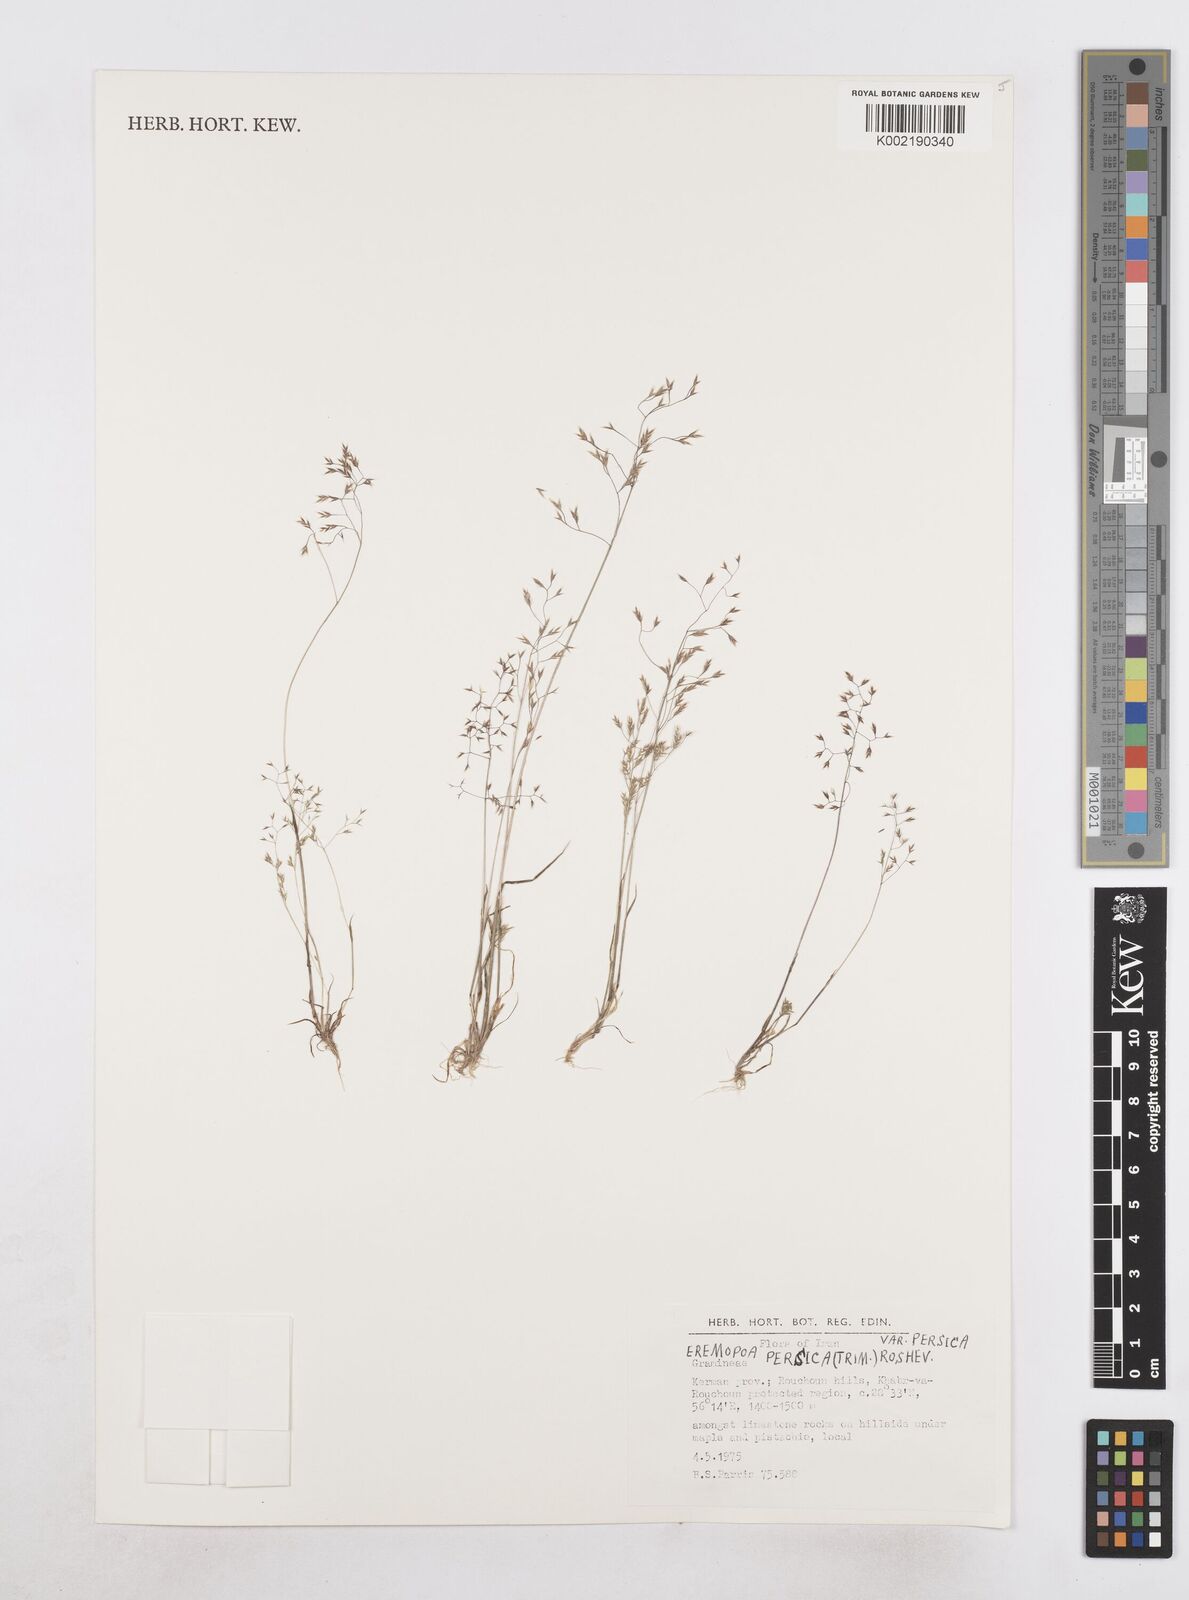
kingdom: Plantae
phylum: Tracheophyta
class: Liliopsida
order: Poales
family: Poaceae
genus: Poa
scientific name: Poa persica
